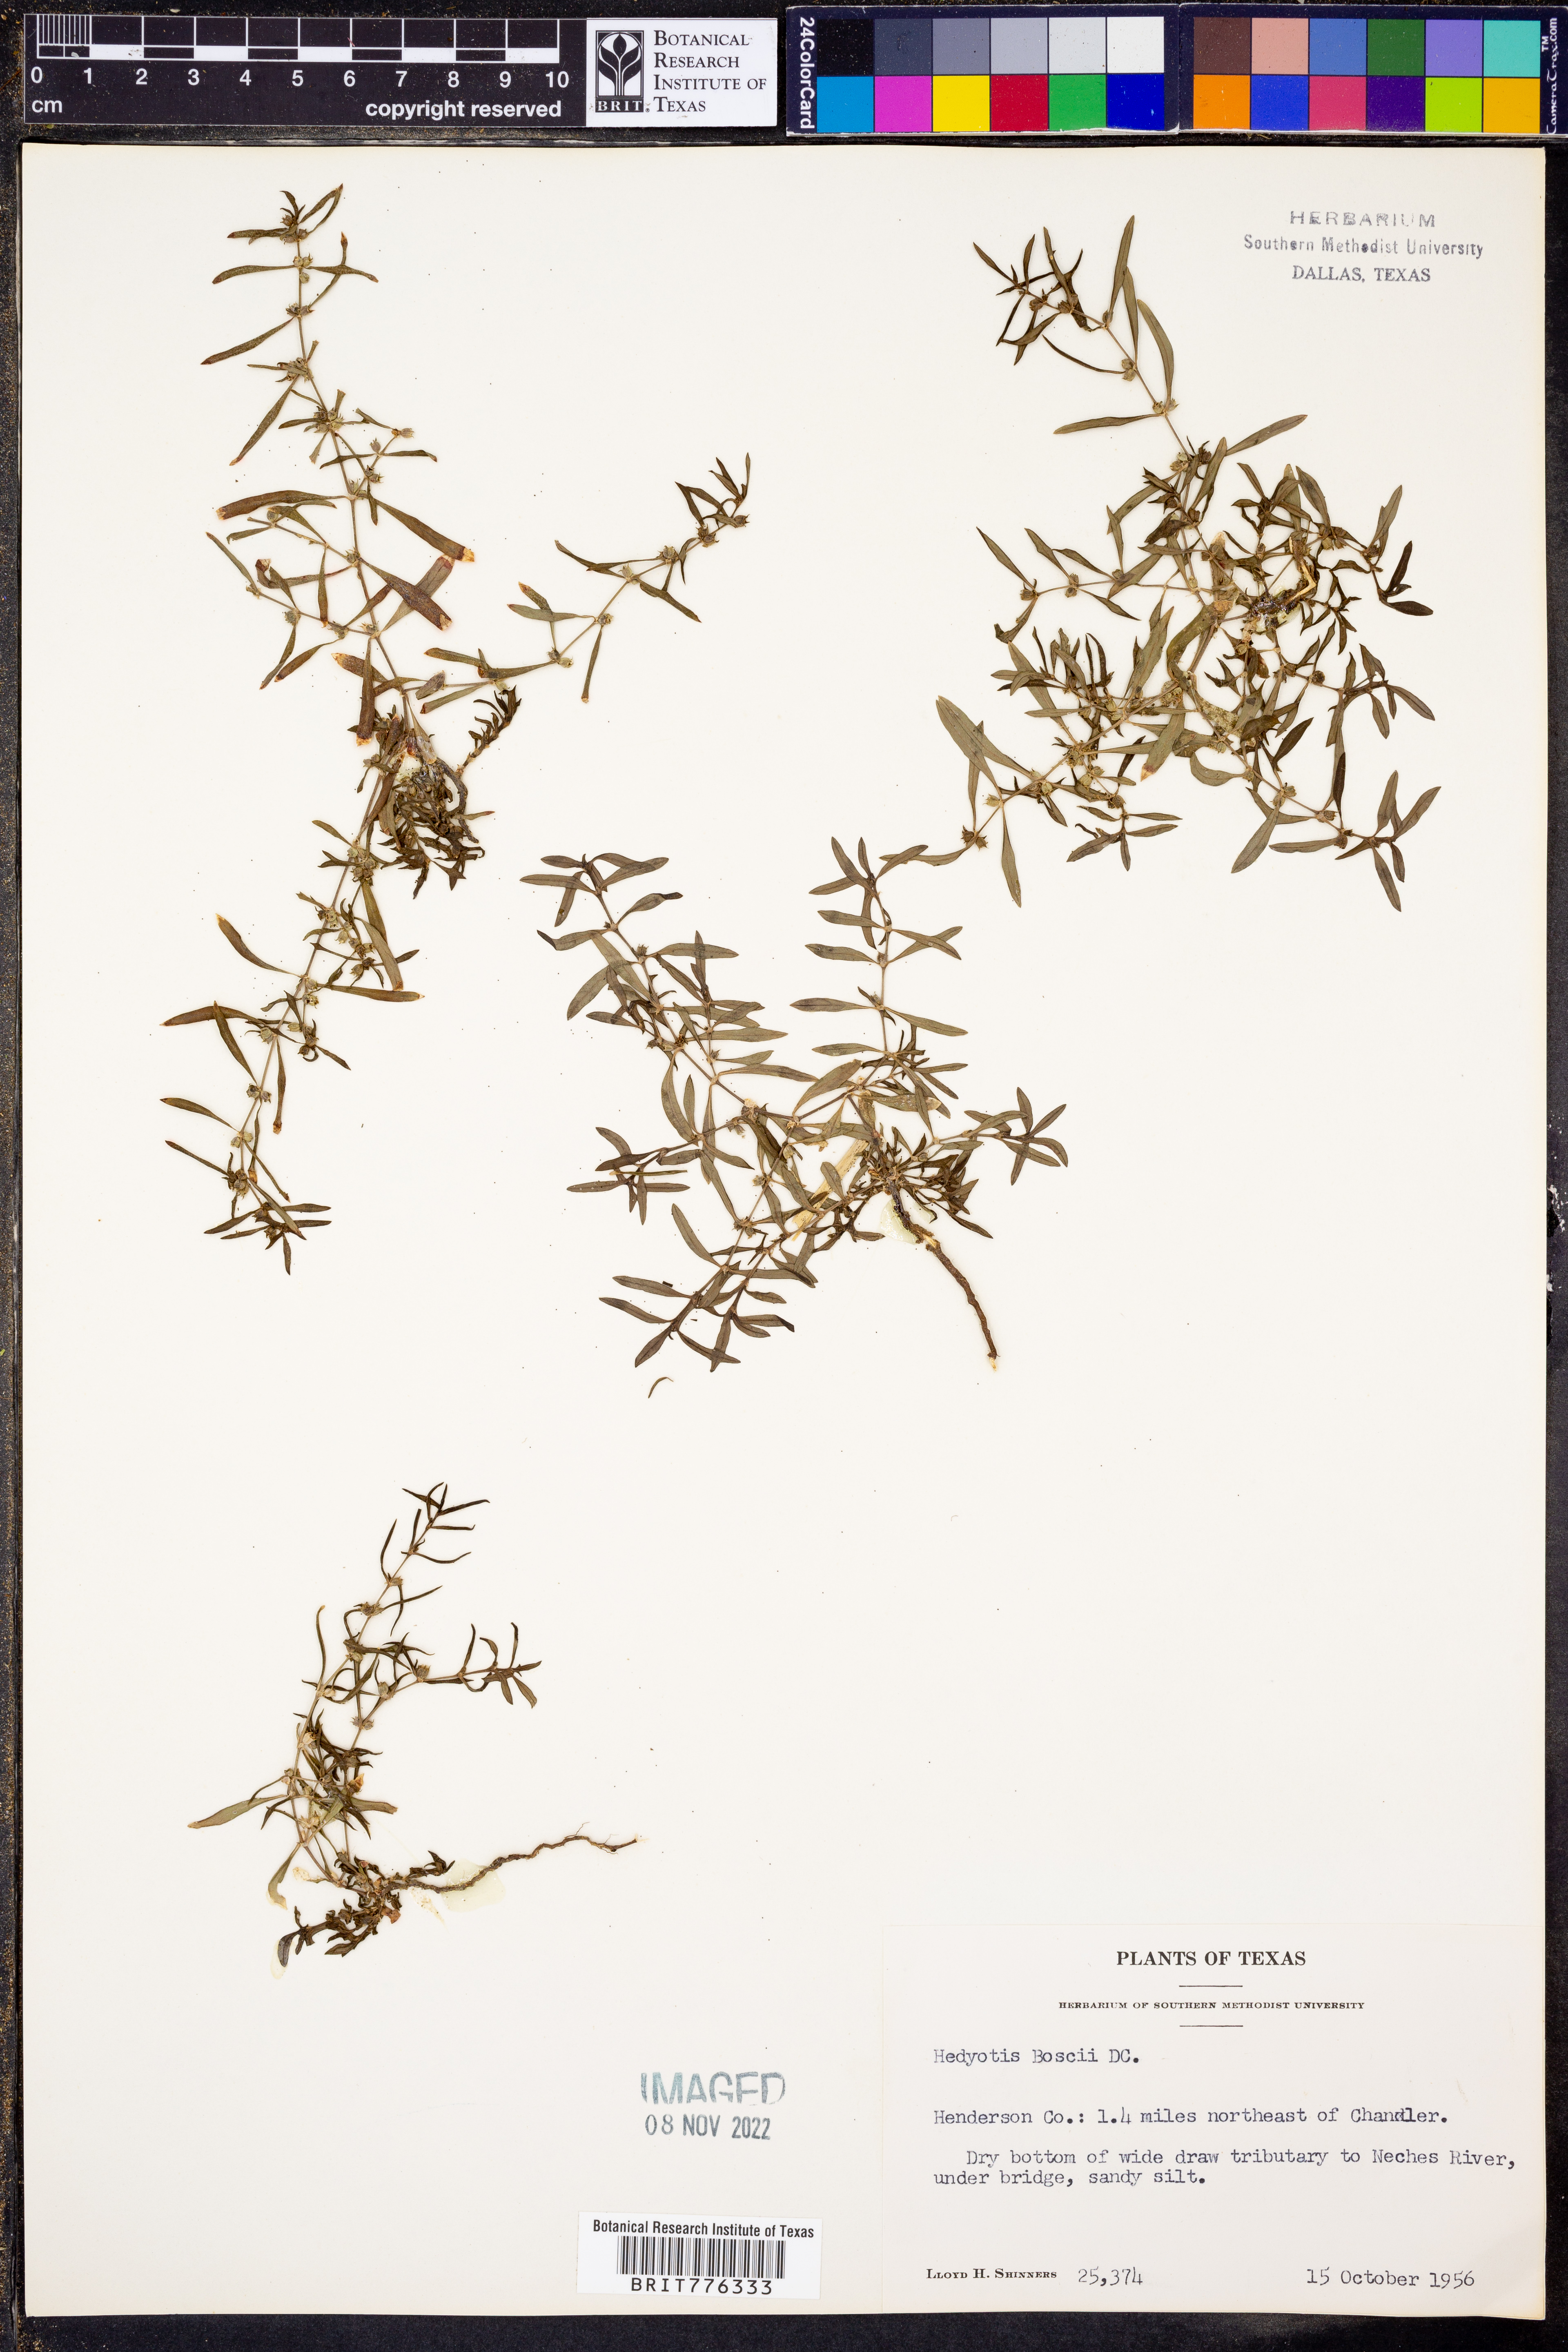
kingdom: Plantae
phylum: Tracheophyta
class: Magnoliopsida
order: Gentianales
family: Rubiaceae
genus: Oldenlandia
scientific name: Oldenlandia boscii
